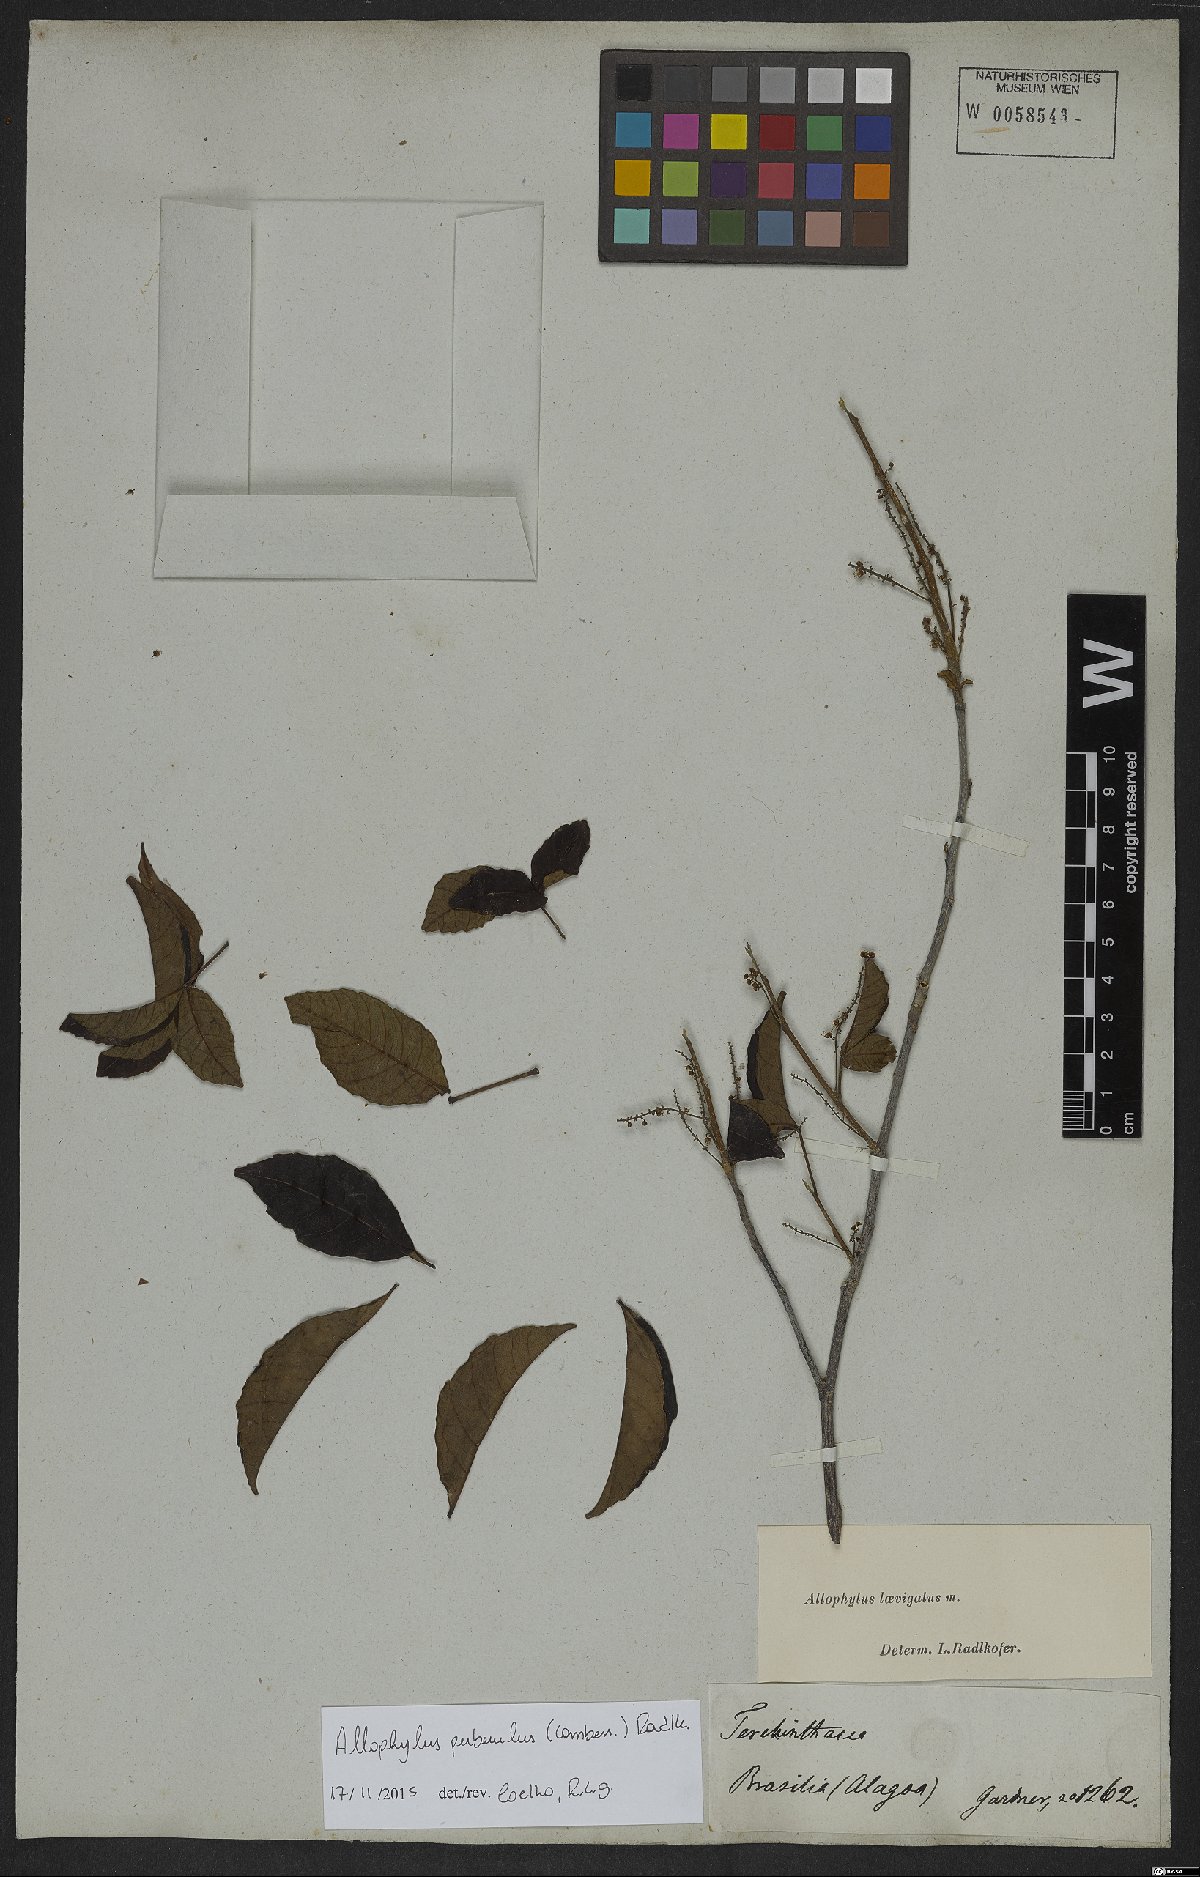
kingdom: Plantae
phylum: Tracheophyta
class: Magnoliopsida
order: Sapindales
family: Sapindaceae
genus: Allophylus
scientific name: Allophylus puberulus
